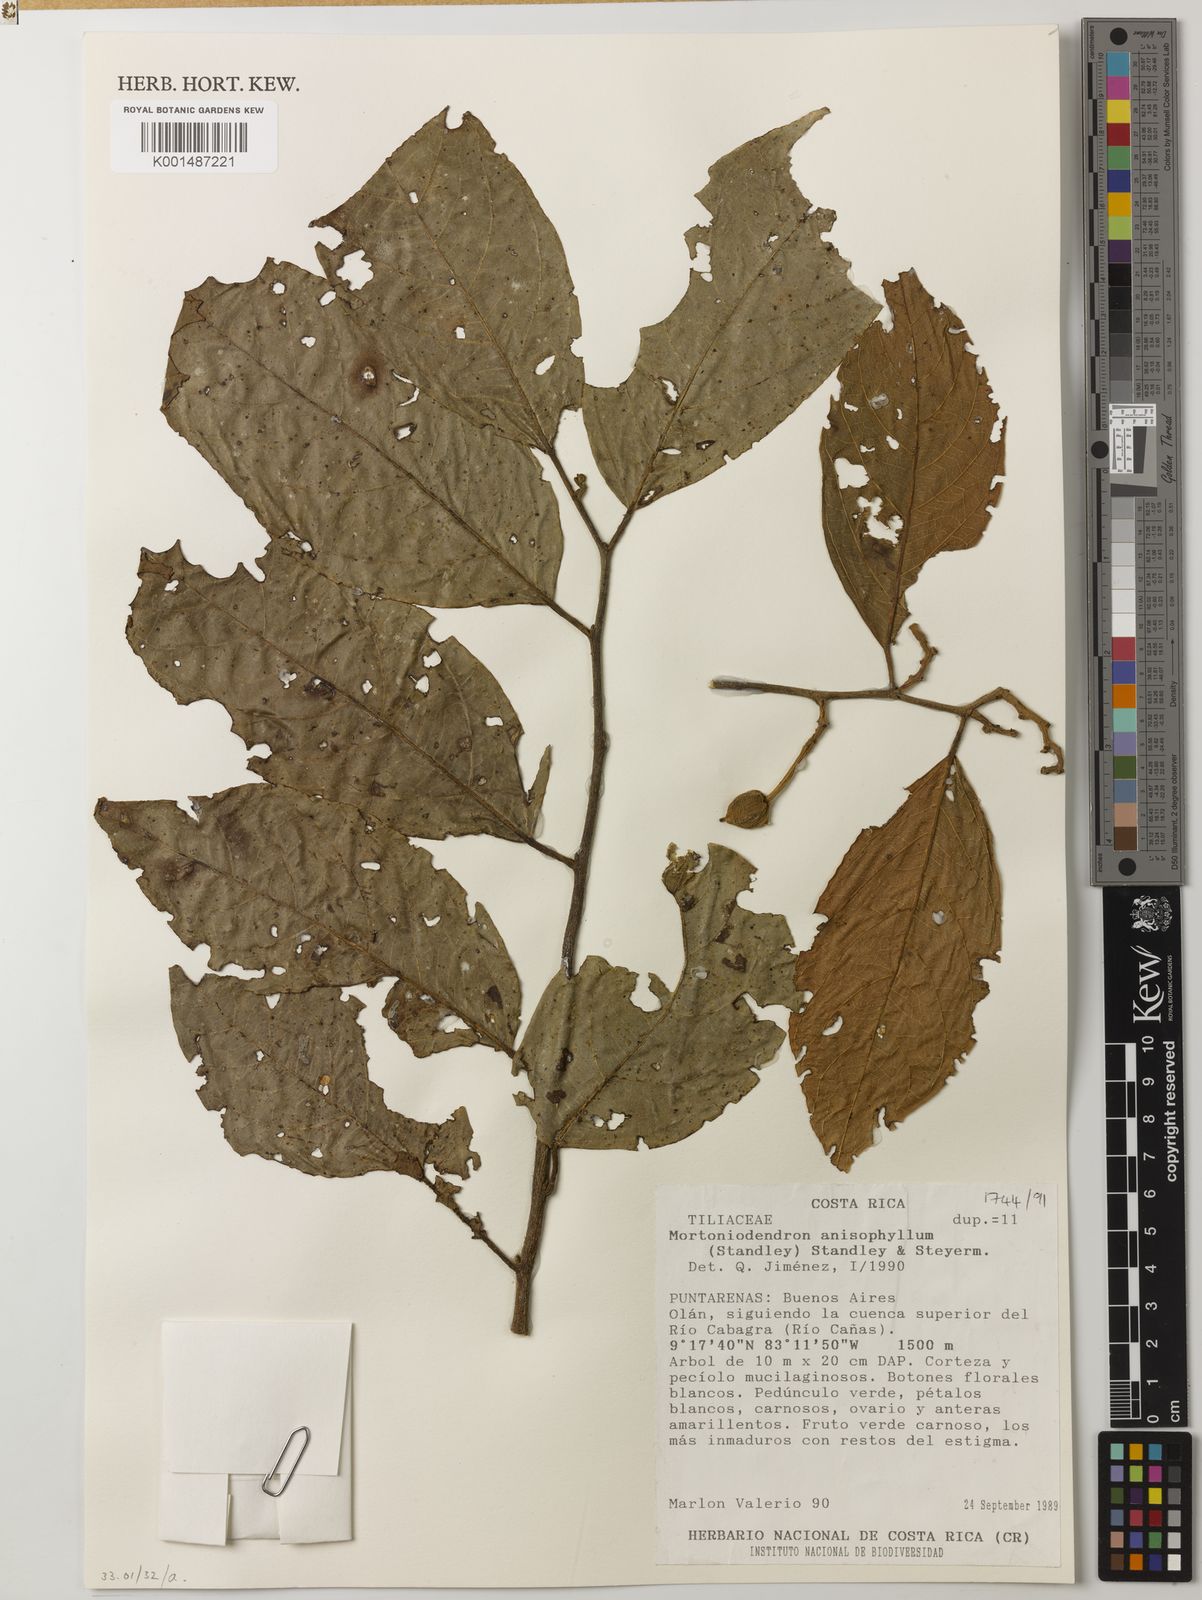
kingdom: Plantae
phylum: Tracheophyta
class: Magnoliopsida
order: Malvales
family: Malvaceae
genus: Mortoniodendron
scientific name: Mortoniodendron anisophyllum
